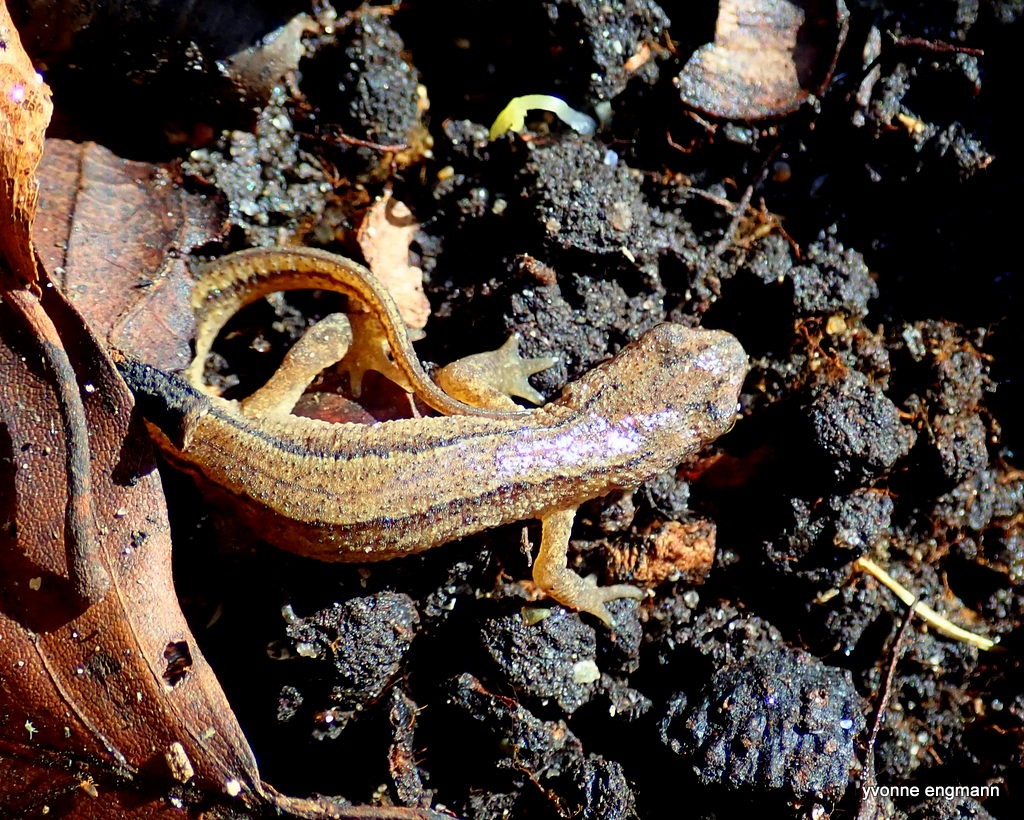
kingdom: Animalia
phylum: Chordata
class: Amphibia
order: Caudata
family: Salamandridae
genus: Lissotriton
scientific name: Lissotriton vulgaris
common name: Lille vandsalamander
